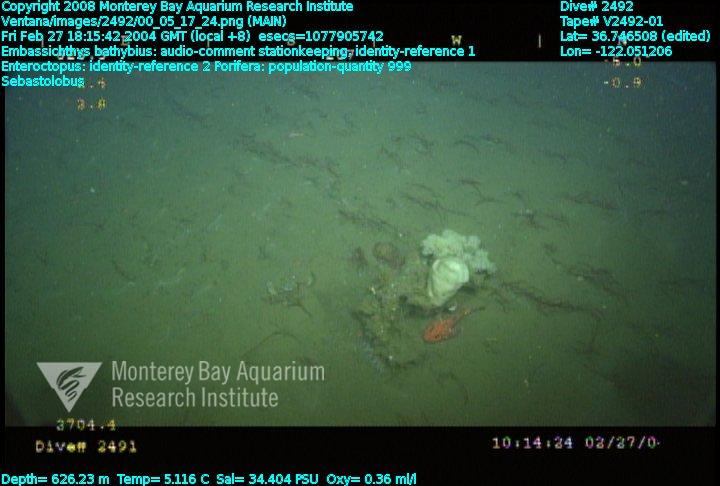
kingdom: Animalia
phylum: Porifera
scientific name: Porifera
